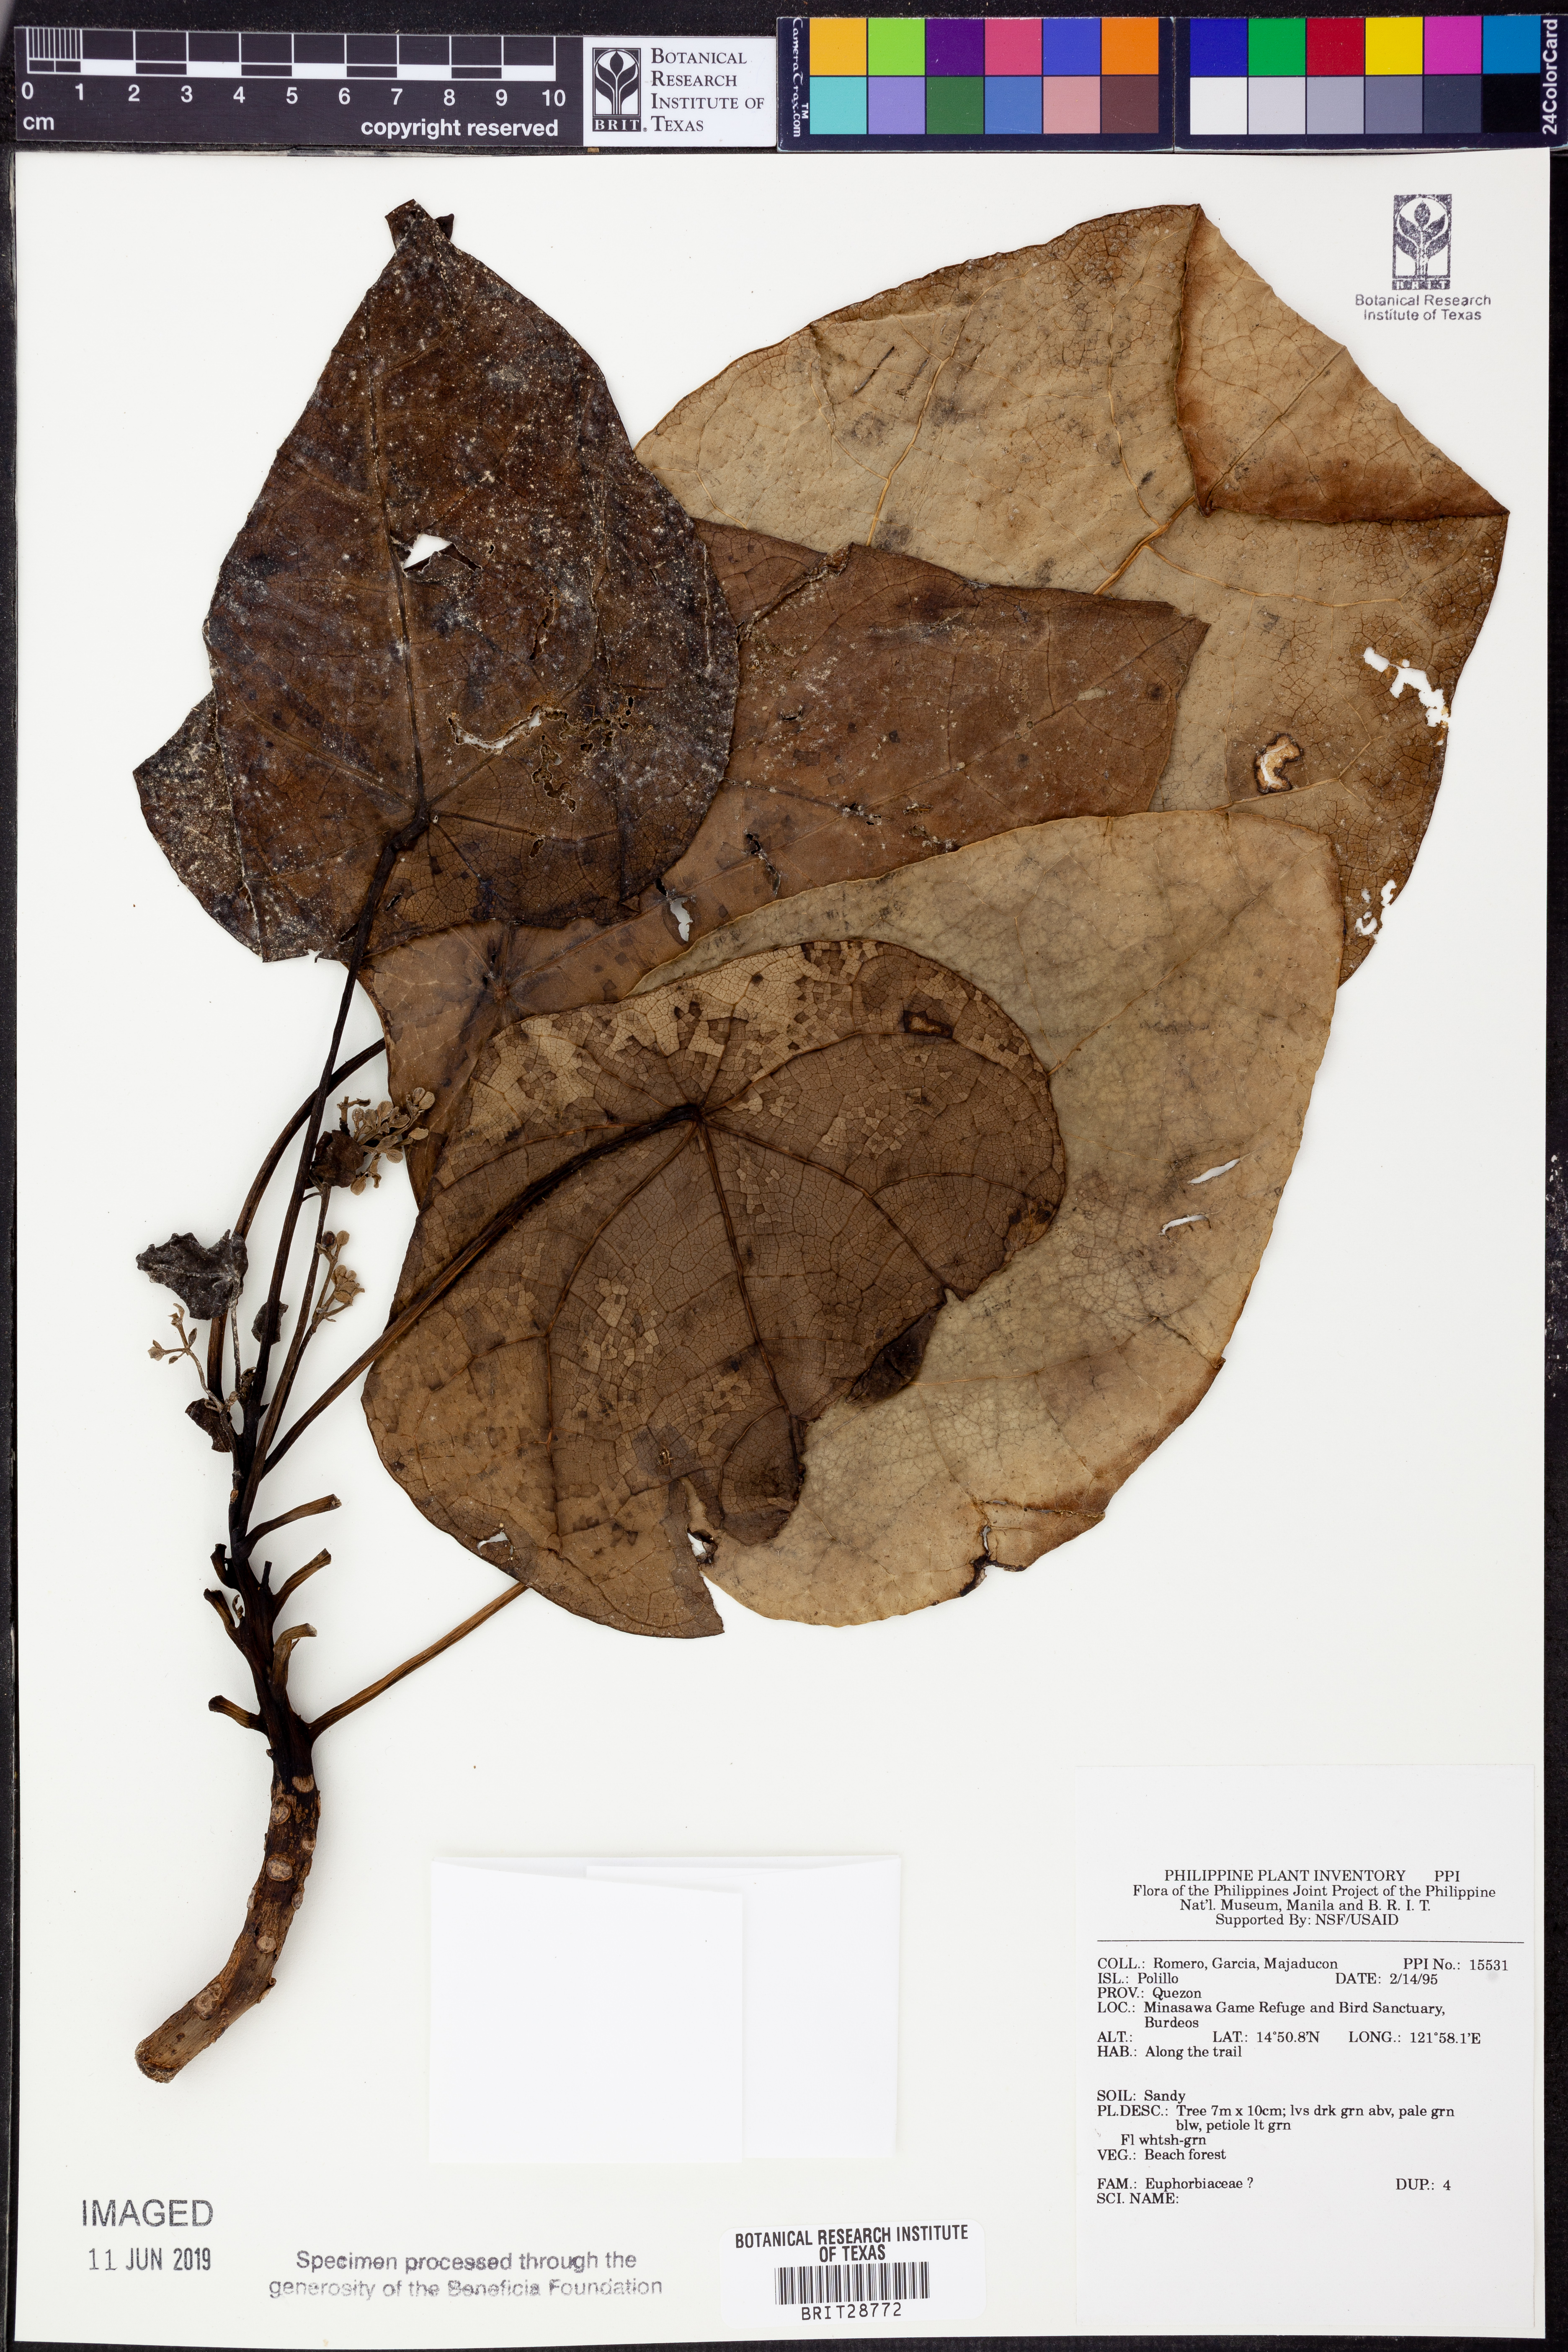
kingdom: Plantae
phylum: Tracheophyta
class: Magnoliopsida
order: Malpighiales
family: Euphorbiaceae
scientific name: Euphorbiaceae
